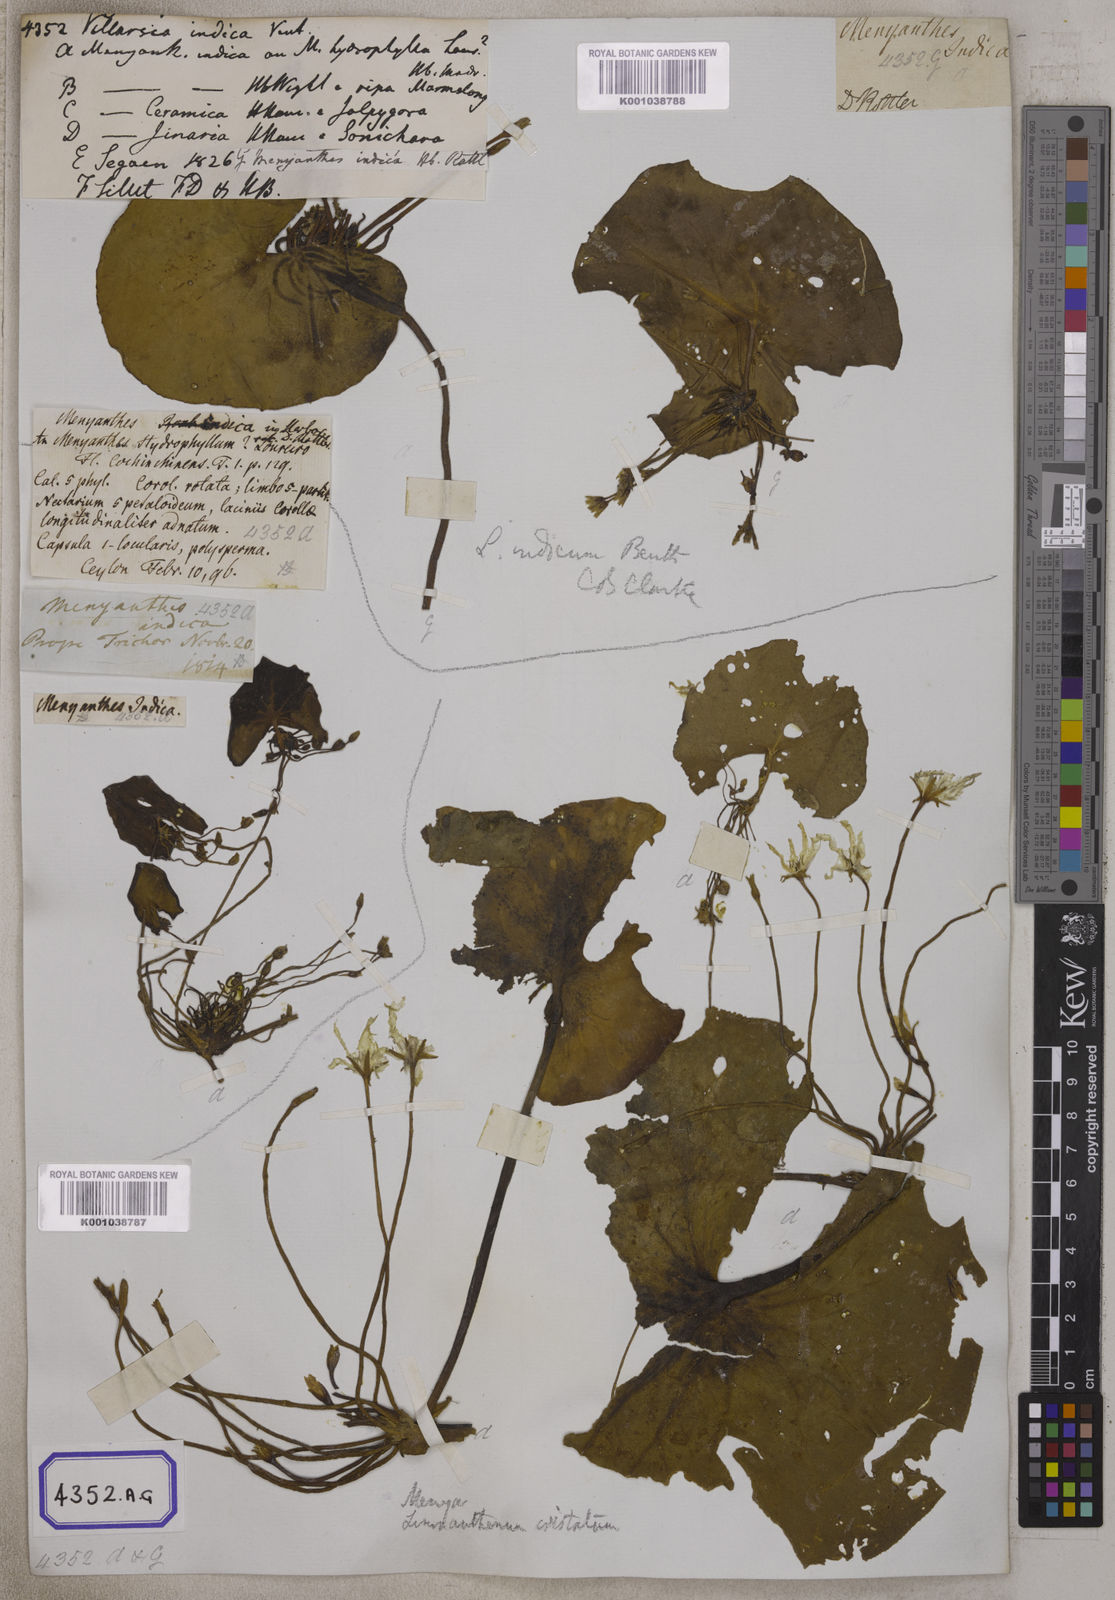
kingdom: Plantae
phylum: Tracheophyta
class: Magnoliopsida
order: Asterales
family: Menyanthaceae
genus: Villarsia
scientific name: Villarsia
